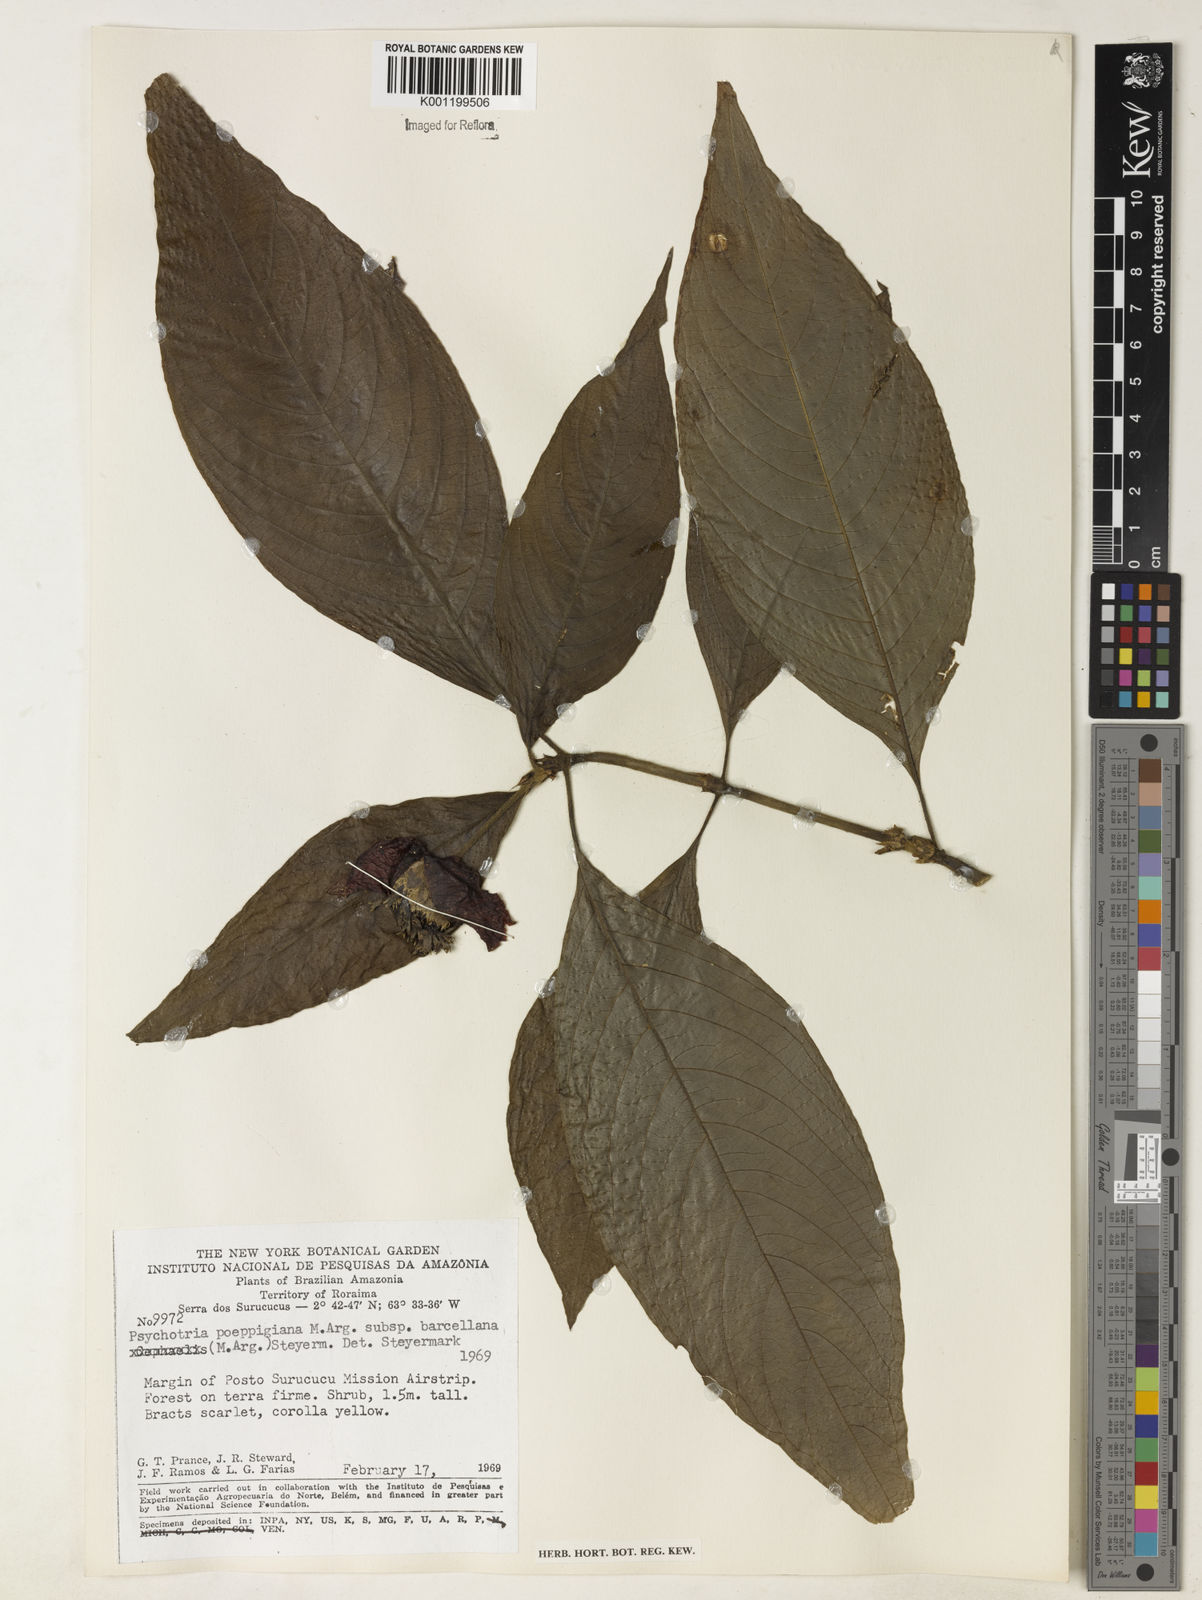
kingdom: Plantae
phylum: Tracheophyta
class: Magnoliopsida
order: Gentianales
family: Rubiaceae
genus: Psychotria
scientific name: Psychotria
